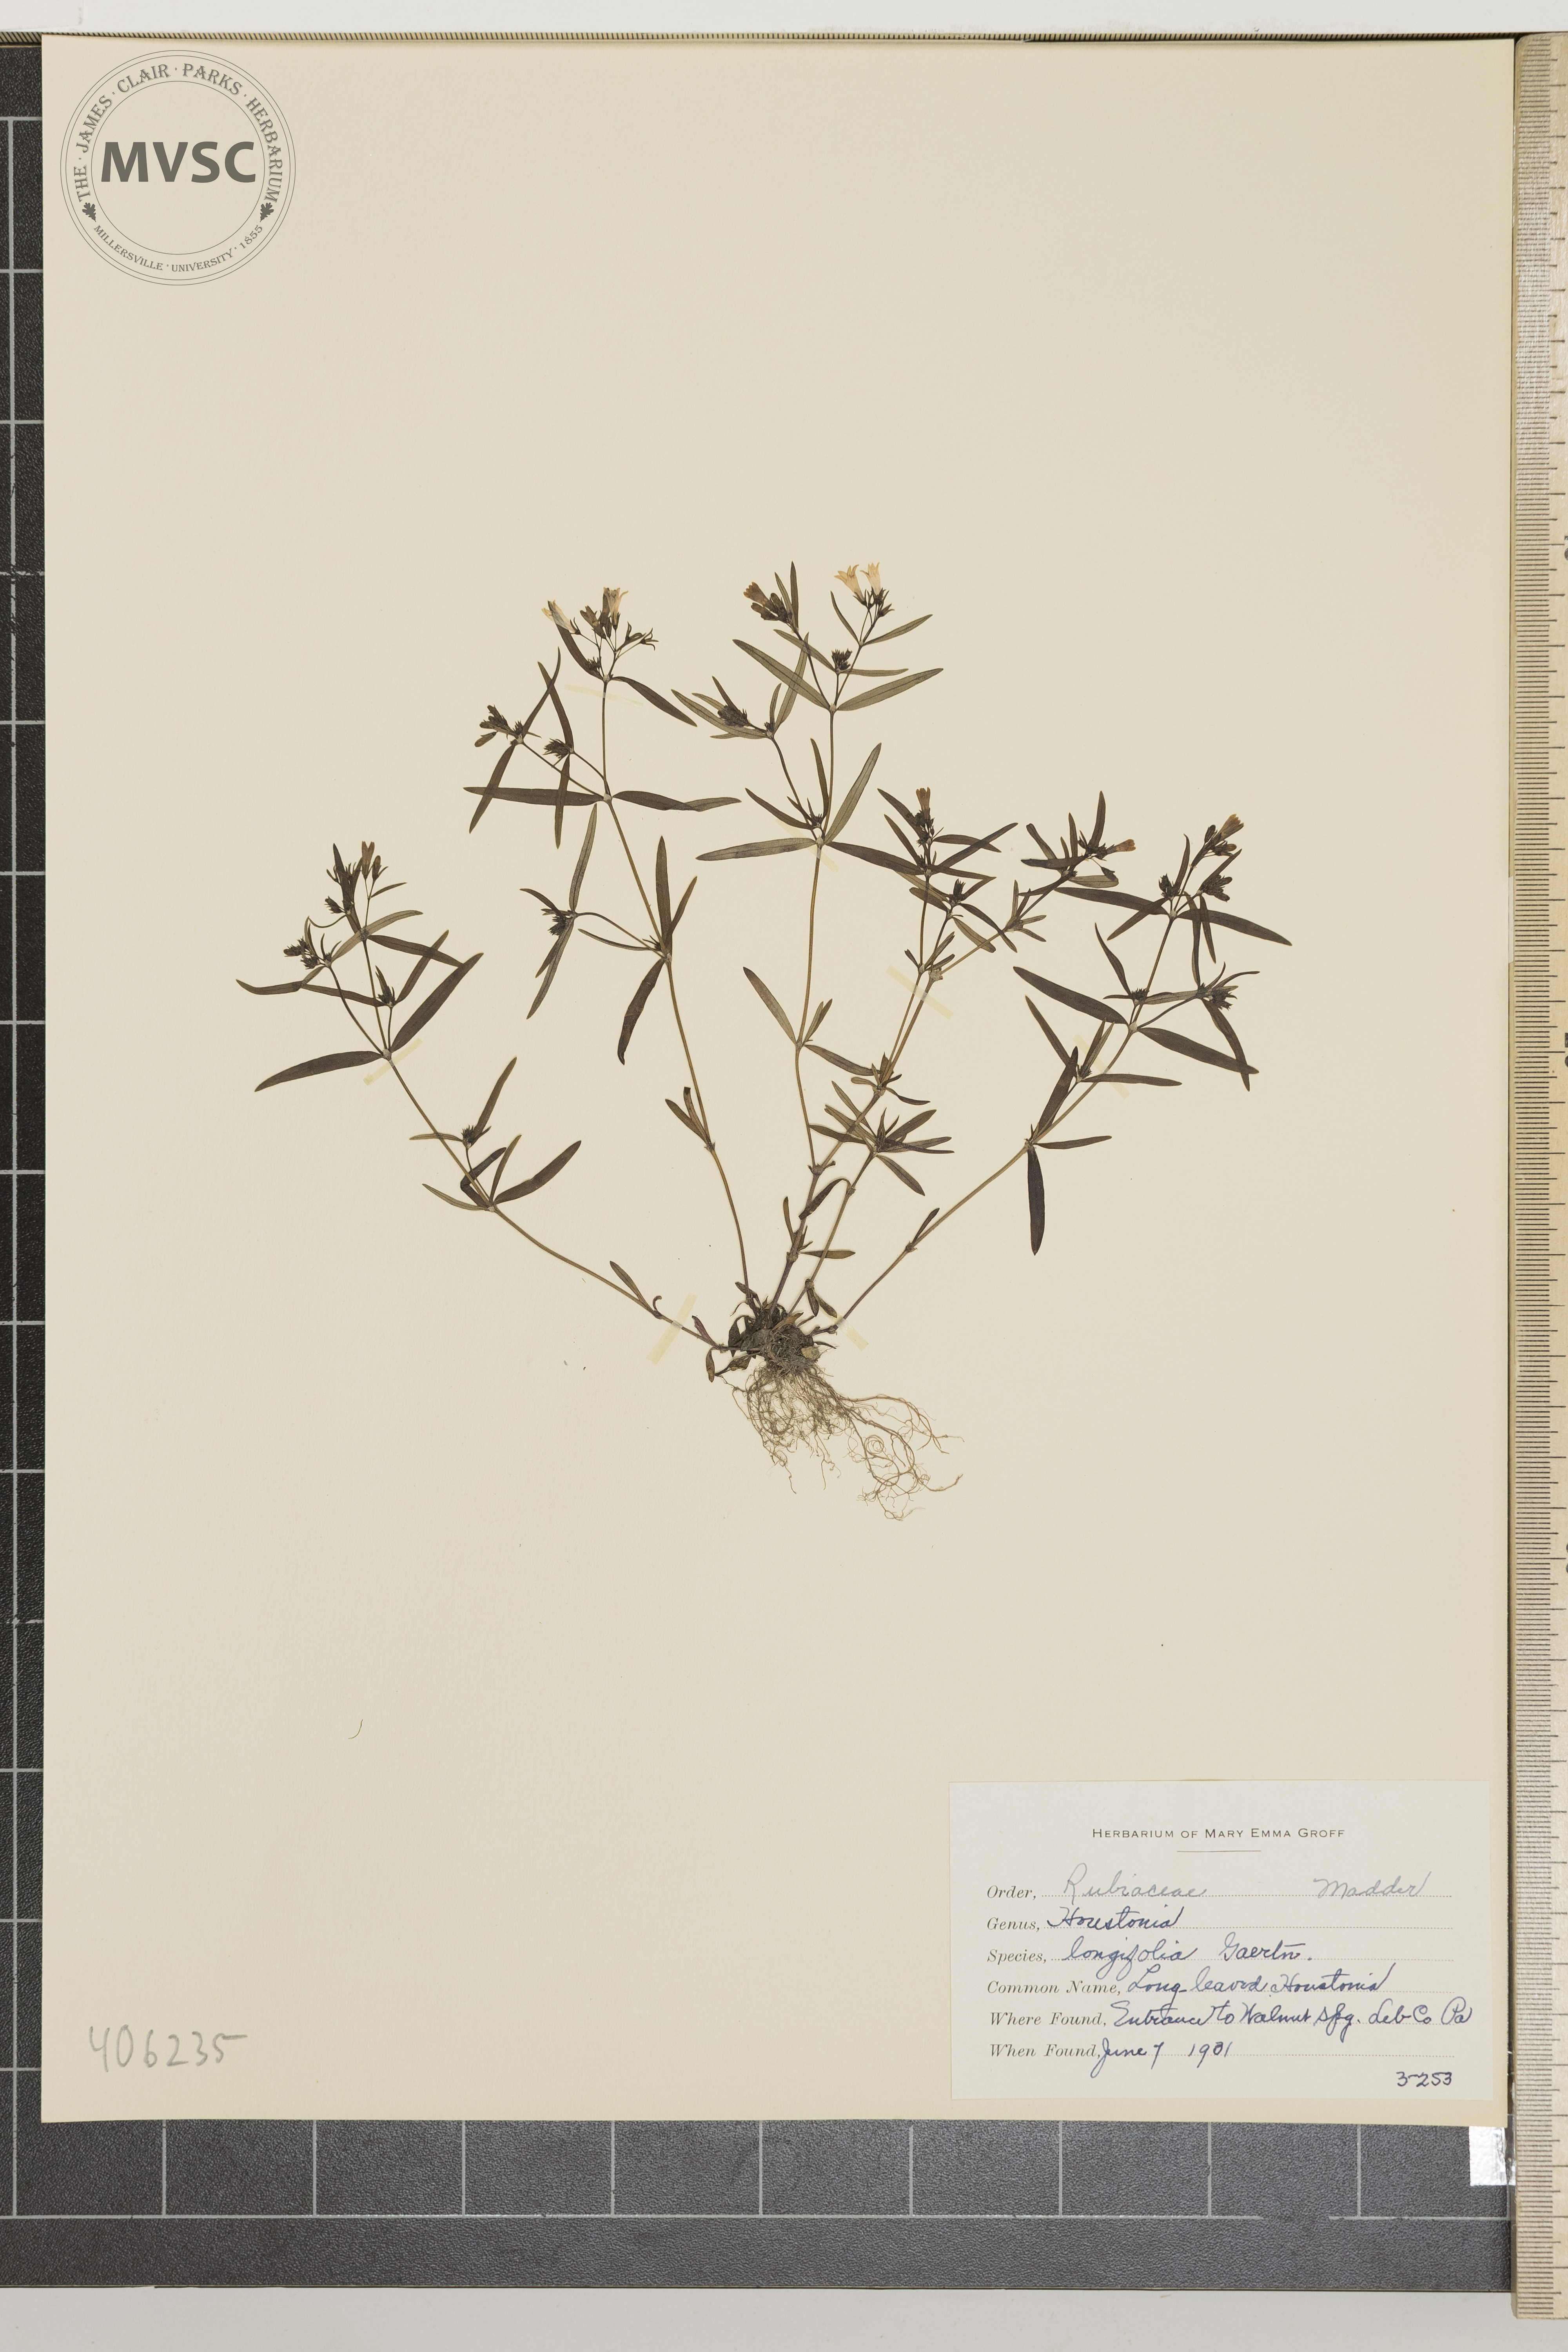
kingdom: Plantae
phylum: Tracheophyta
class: Magnoliopsida
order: Gentianales
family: Rubiaceae
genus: Houstonia
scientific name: Houstonia longifolia
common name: Long-leaved Houstonia
